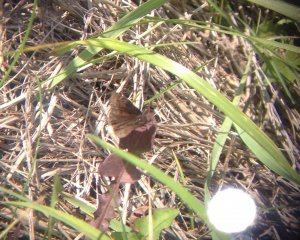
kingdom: Animalia
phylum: Arthropoda
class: Insecta
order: Lepidoptera
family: Hesperiidae
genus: Gesta
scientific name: Gesta
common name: Wild Indigo Duskywing
